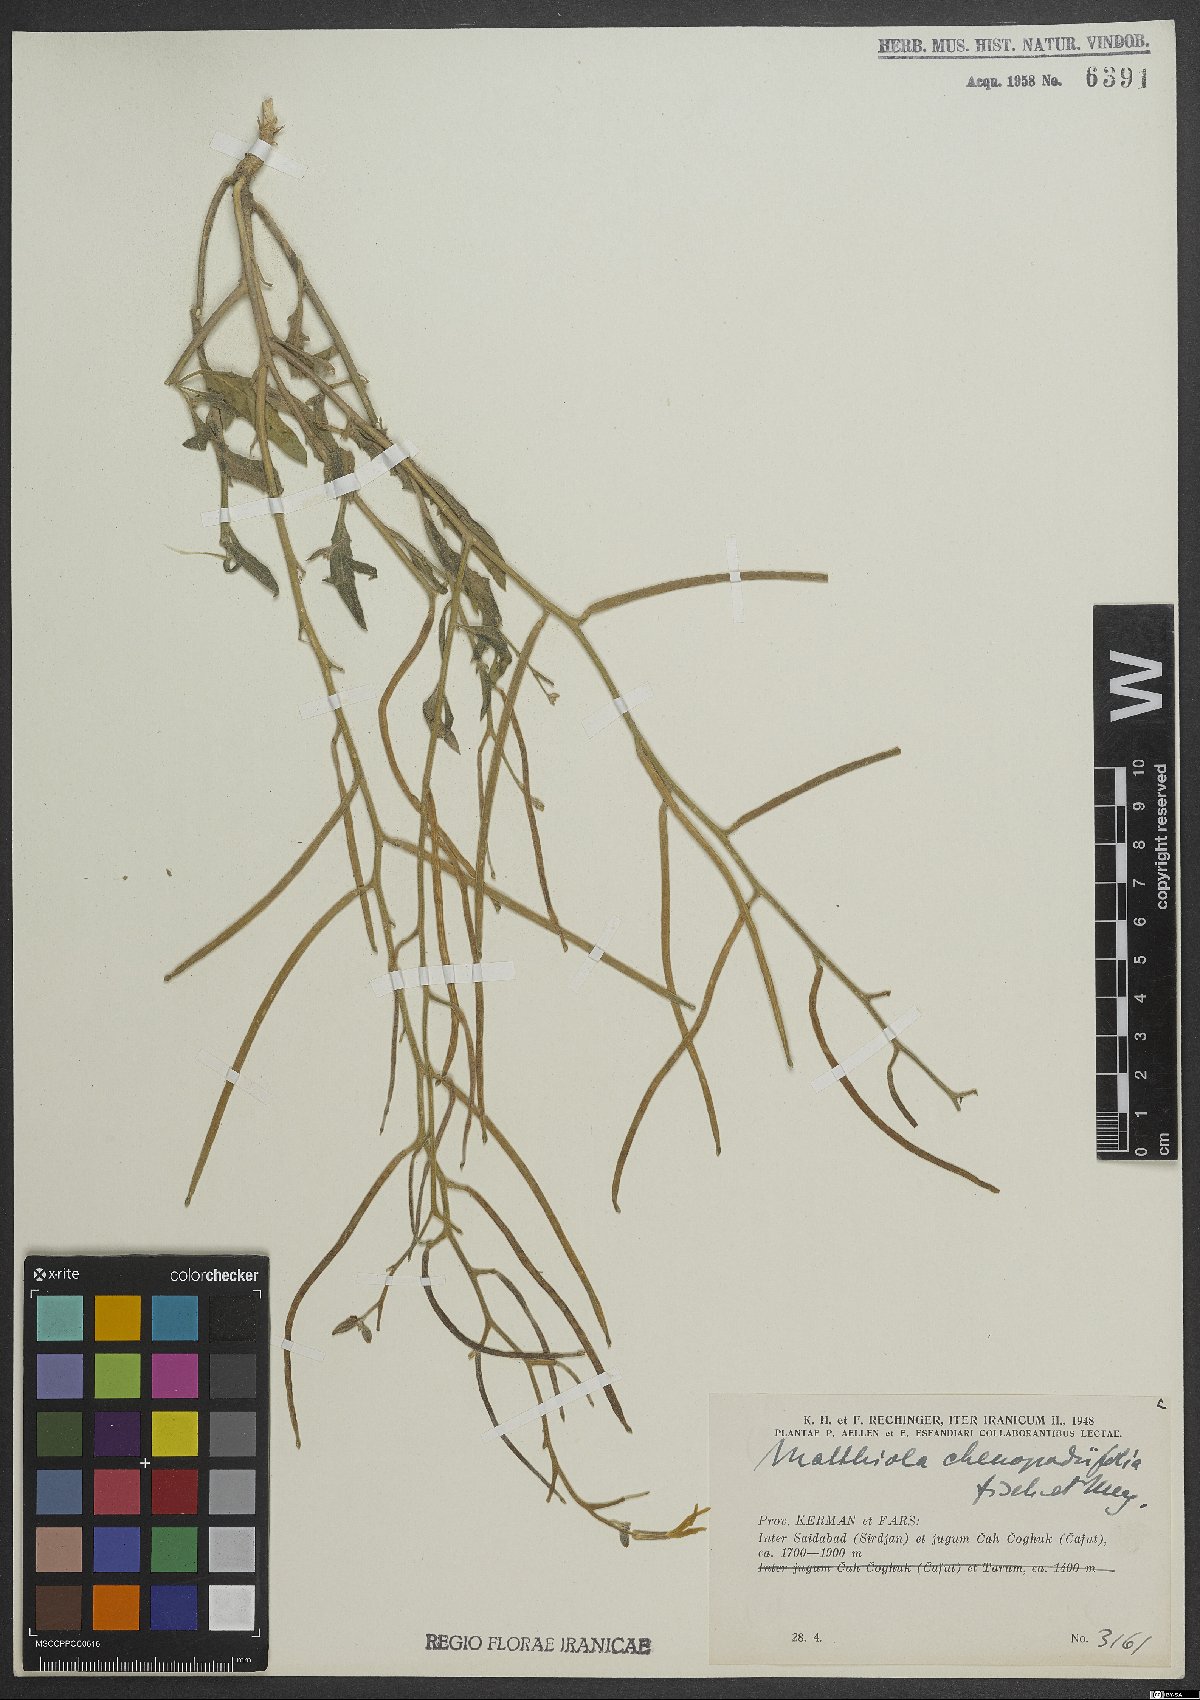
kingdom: Plantae
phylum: Tracheophyta
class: Magnoliopsida
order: Brassicales
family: Brassicaceae
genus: Matthiola
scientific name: Matthiola chenopodiifolia
